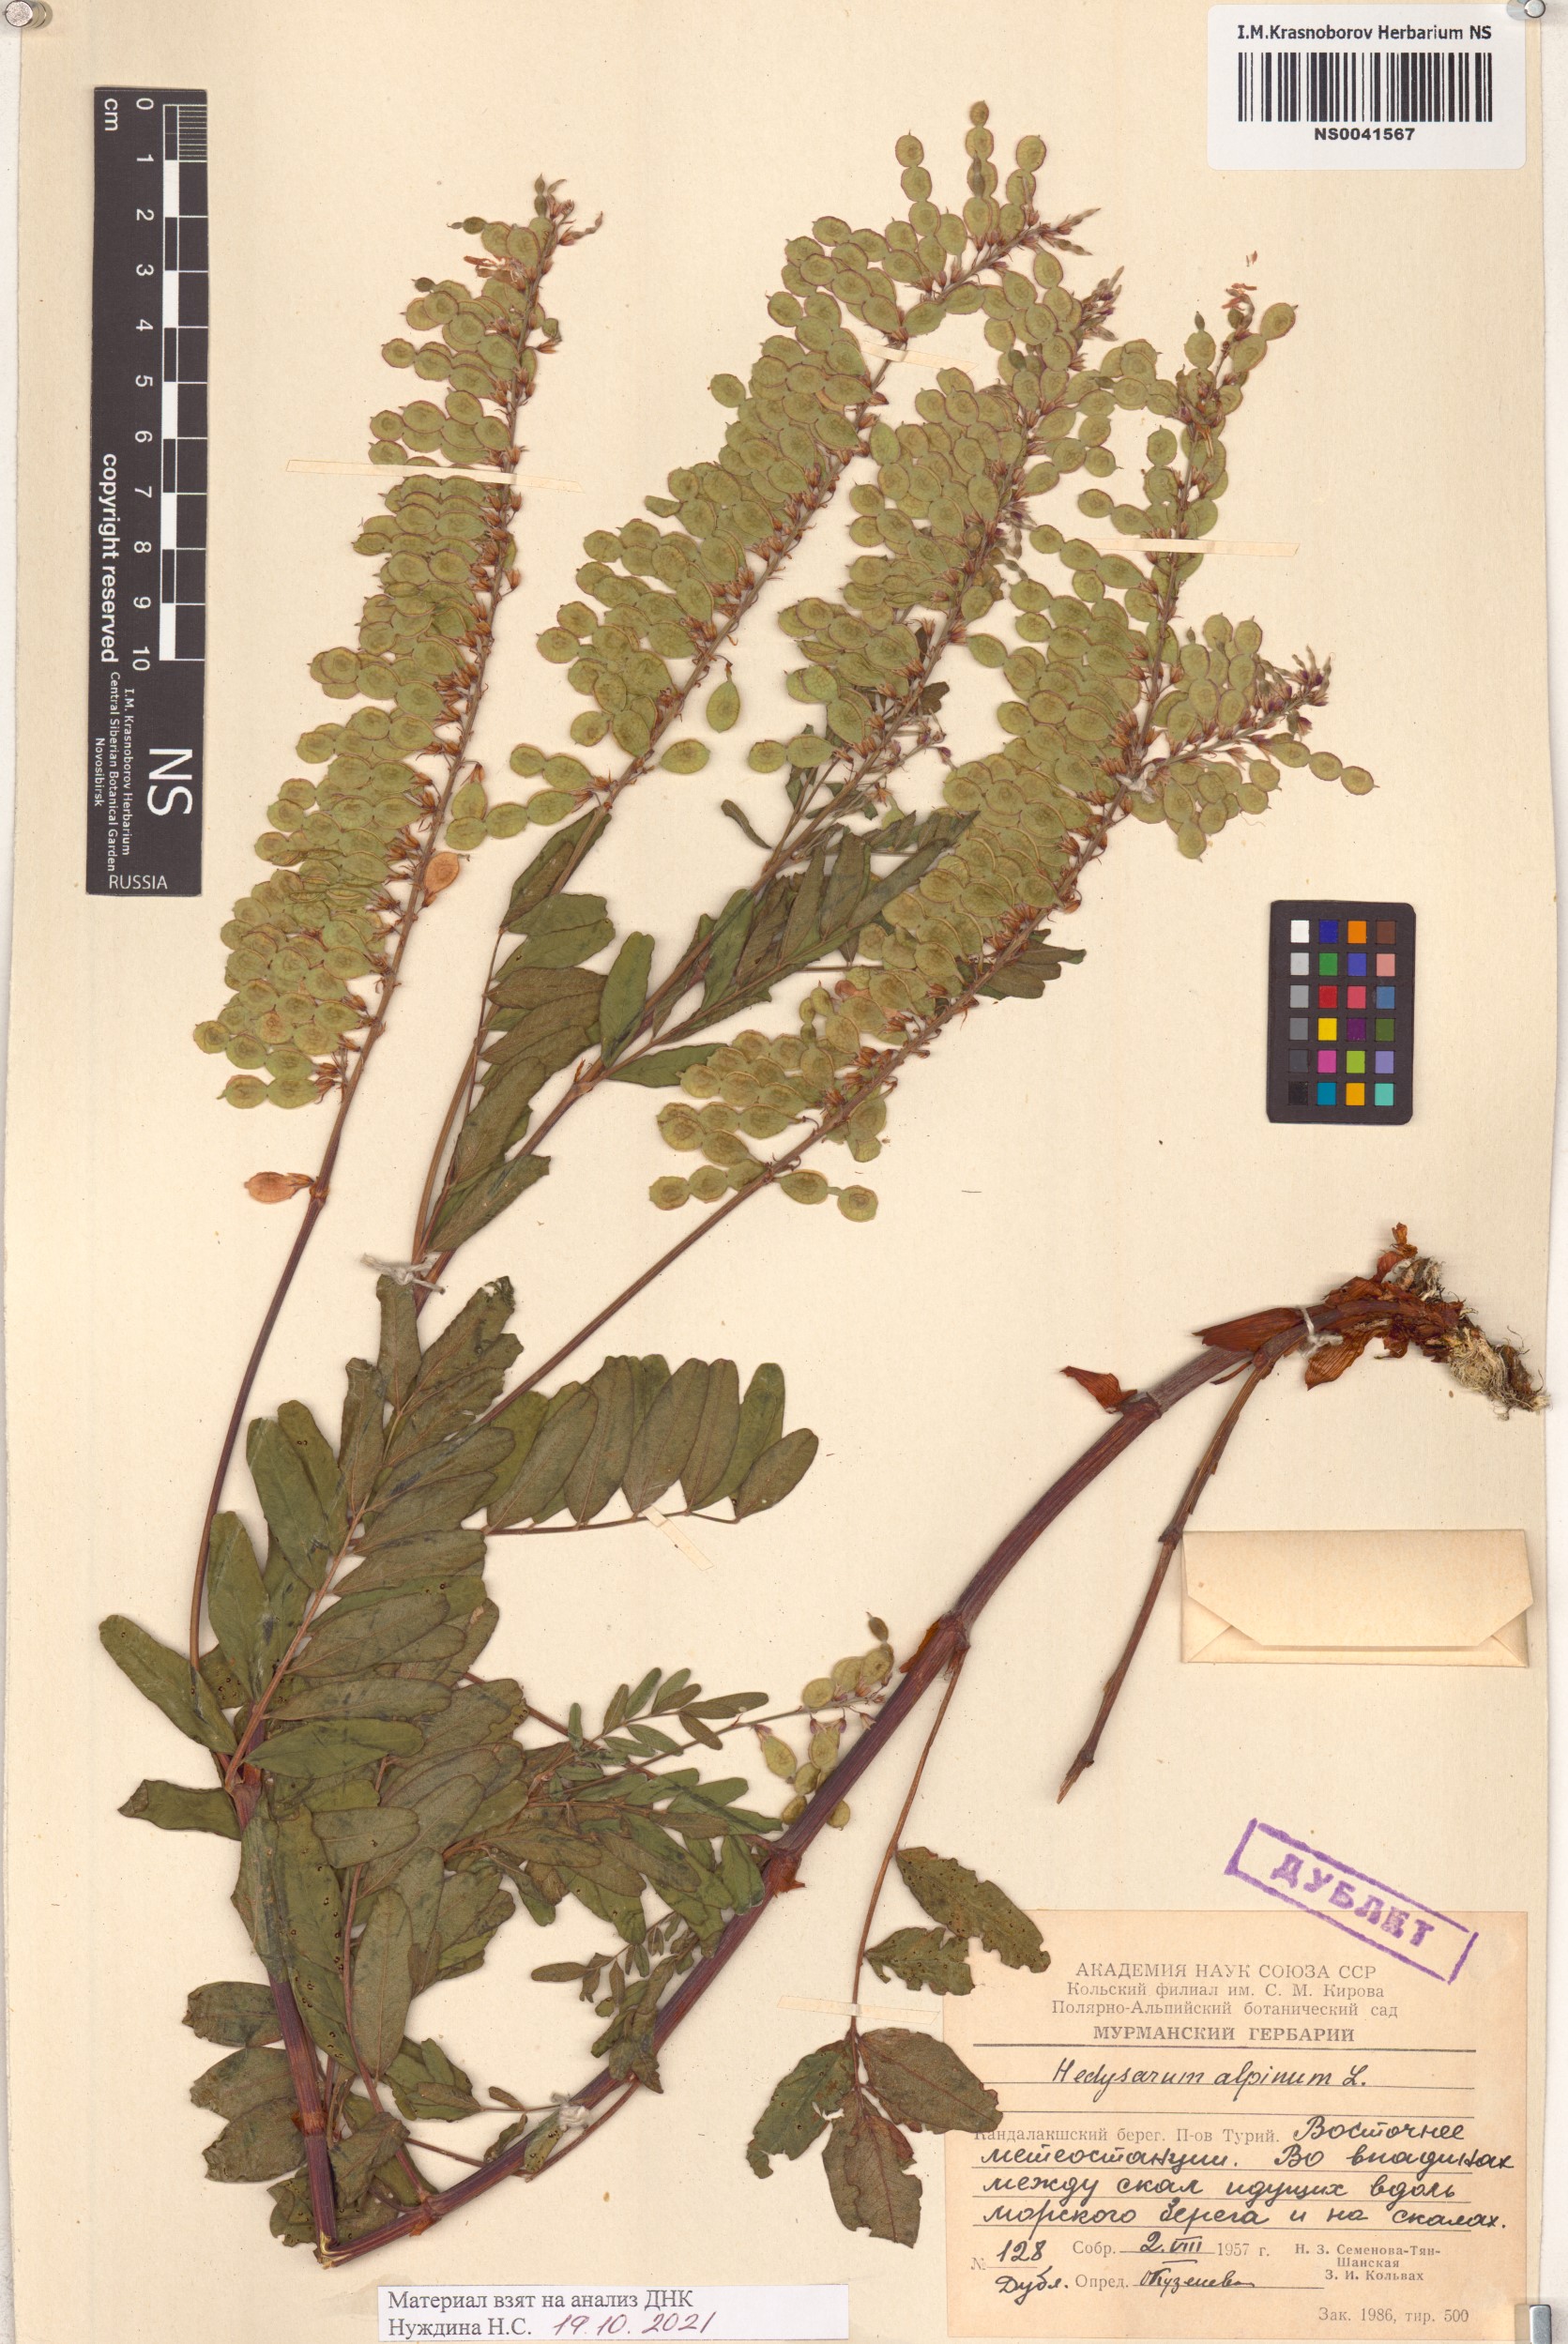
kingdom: Plantae
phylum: Tracheophyta
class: Magnoliopsida
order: Fabales
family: Fabaceae
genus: Hedysarum
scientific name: Hedysarum alpinum
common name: Alpine sweet-vetch
